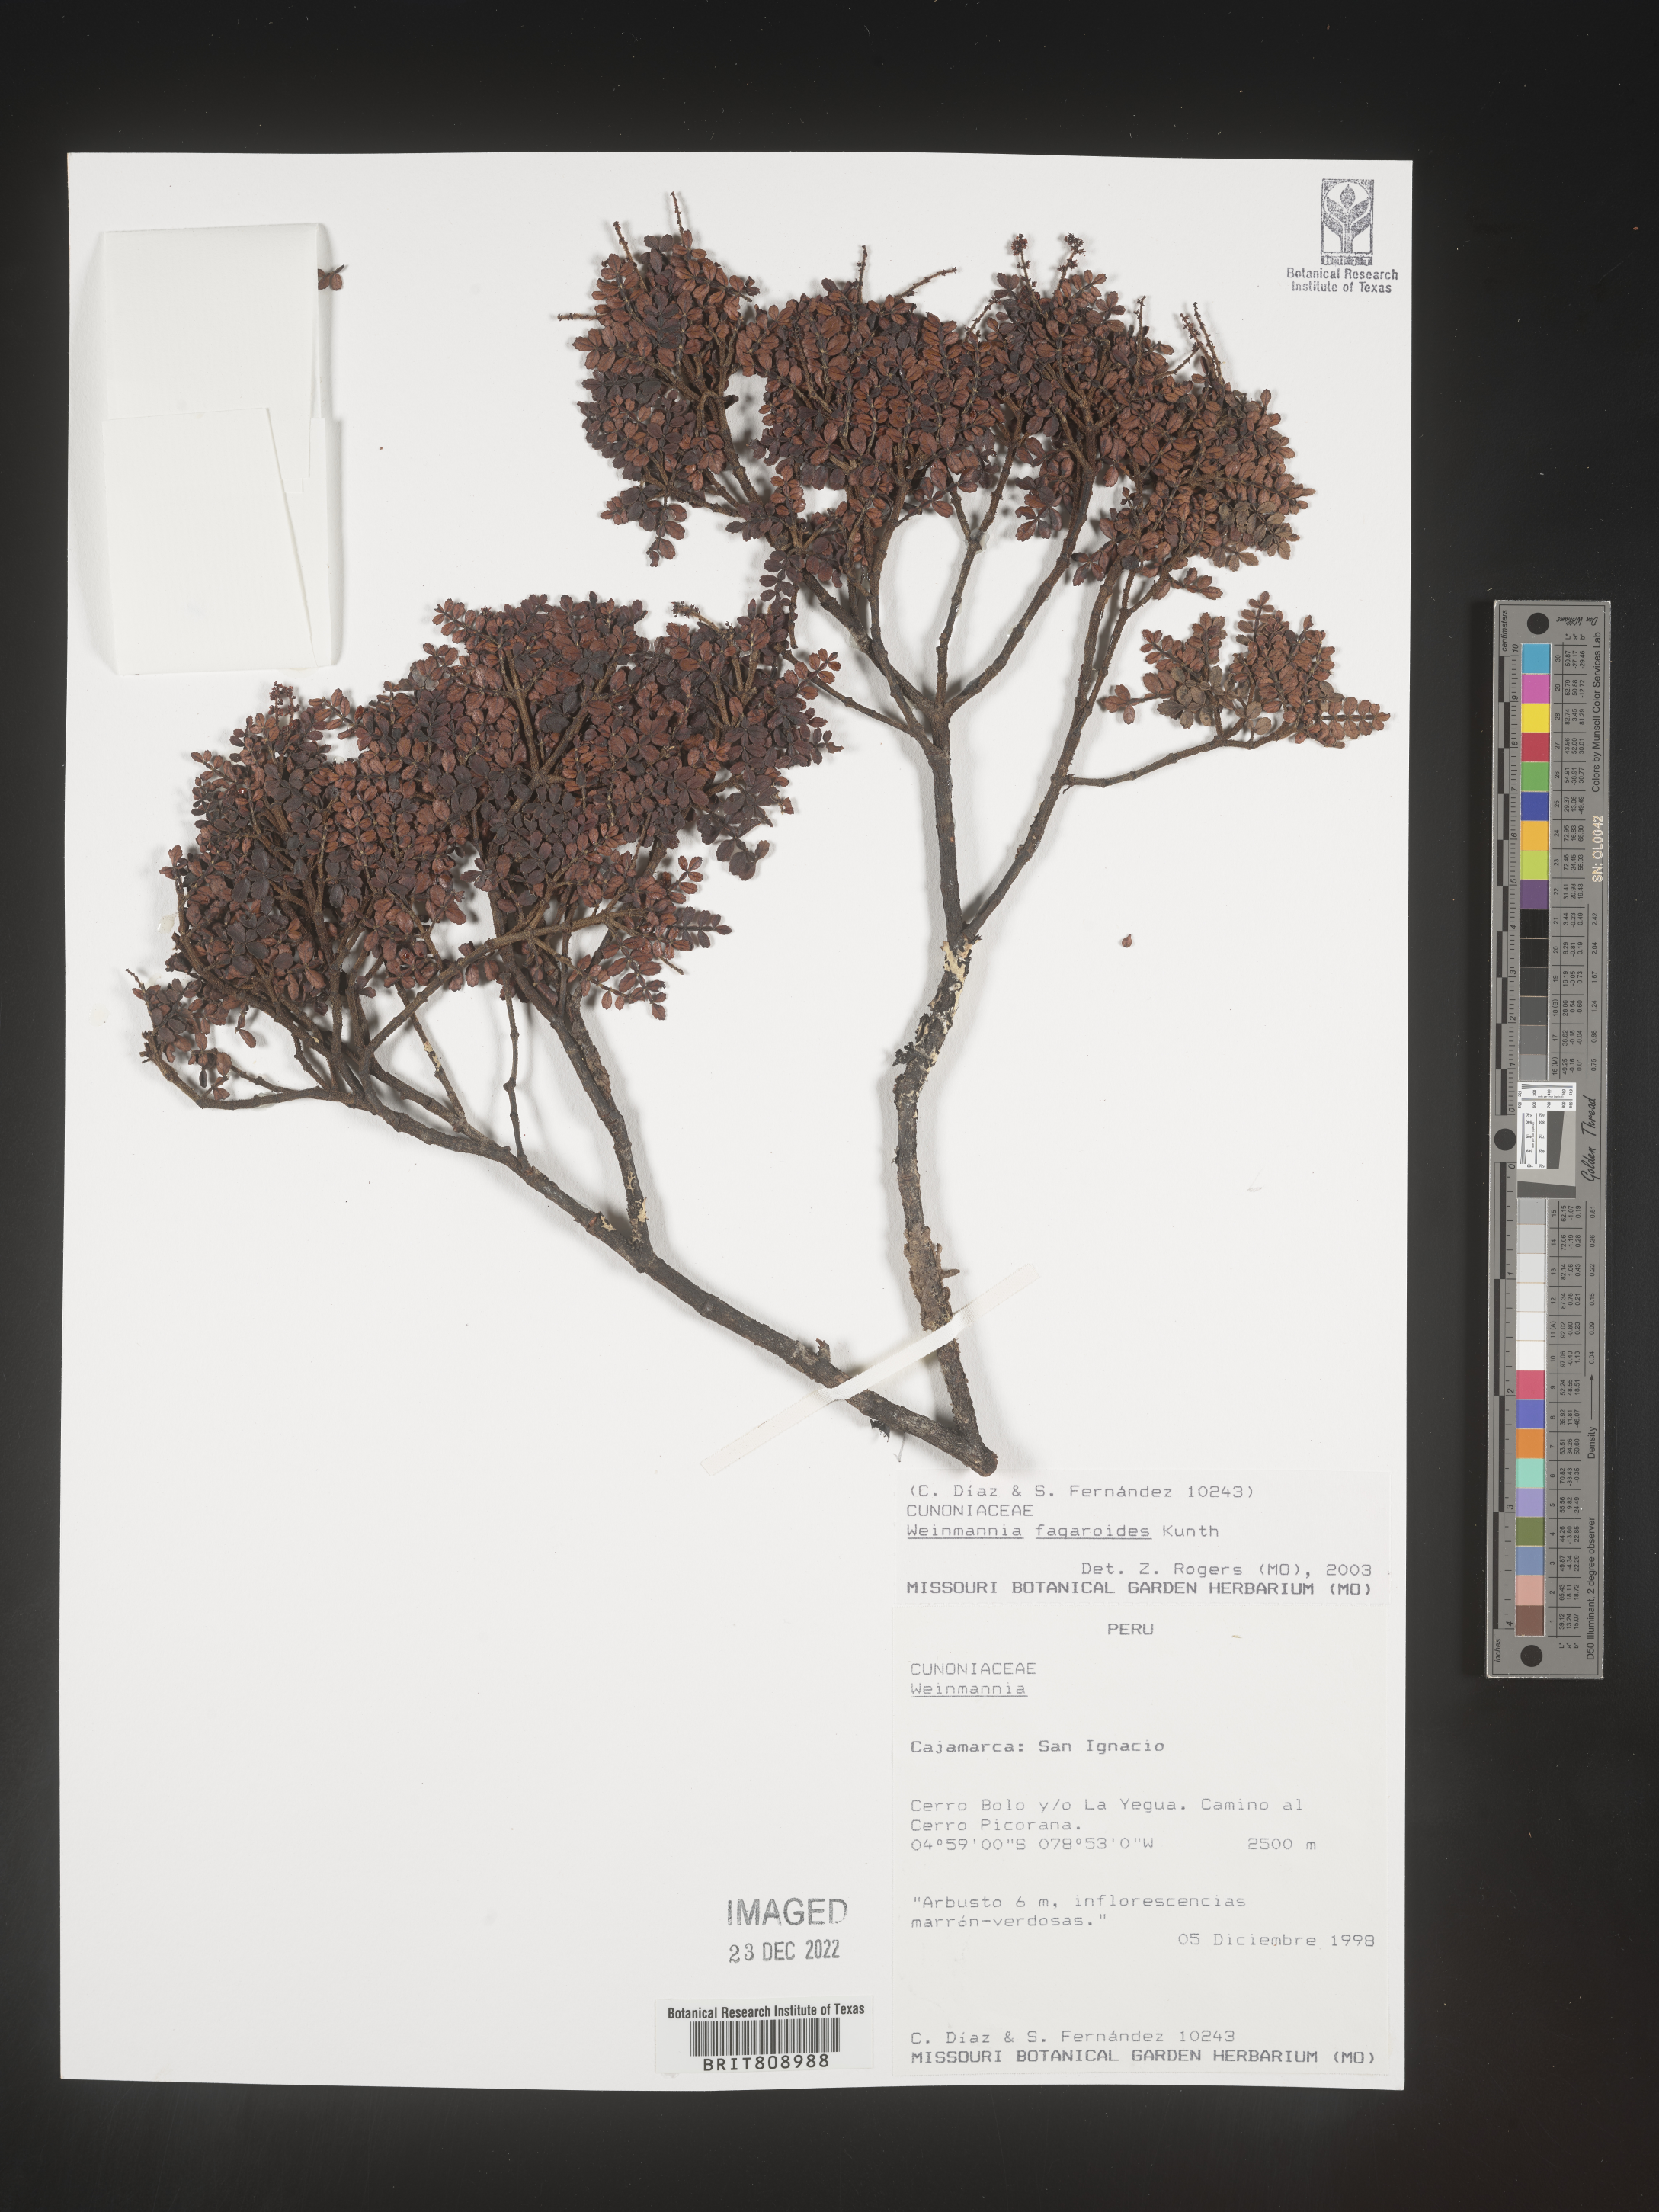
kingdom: Plantae
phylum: Tracheophyta
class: Magnoliopsida
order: Oxalidales
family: Cunoniaceae
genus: Weinmannia
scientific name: Weinmannia
